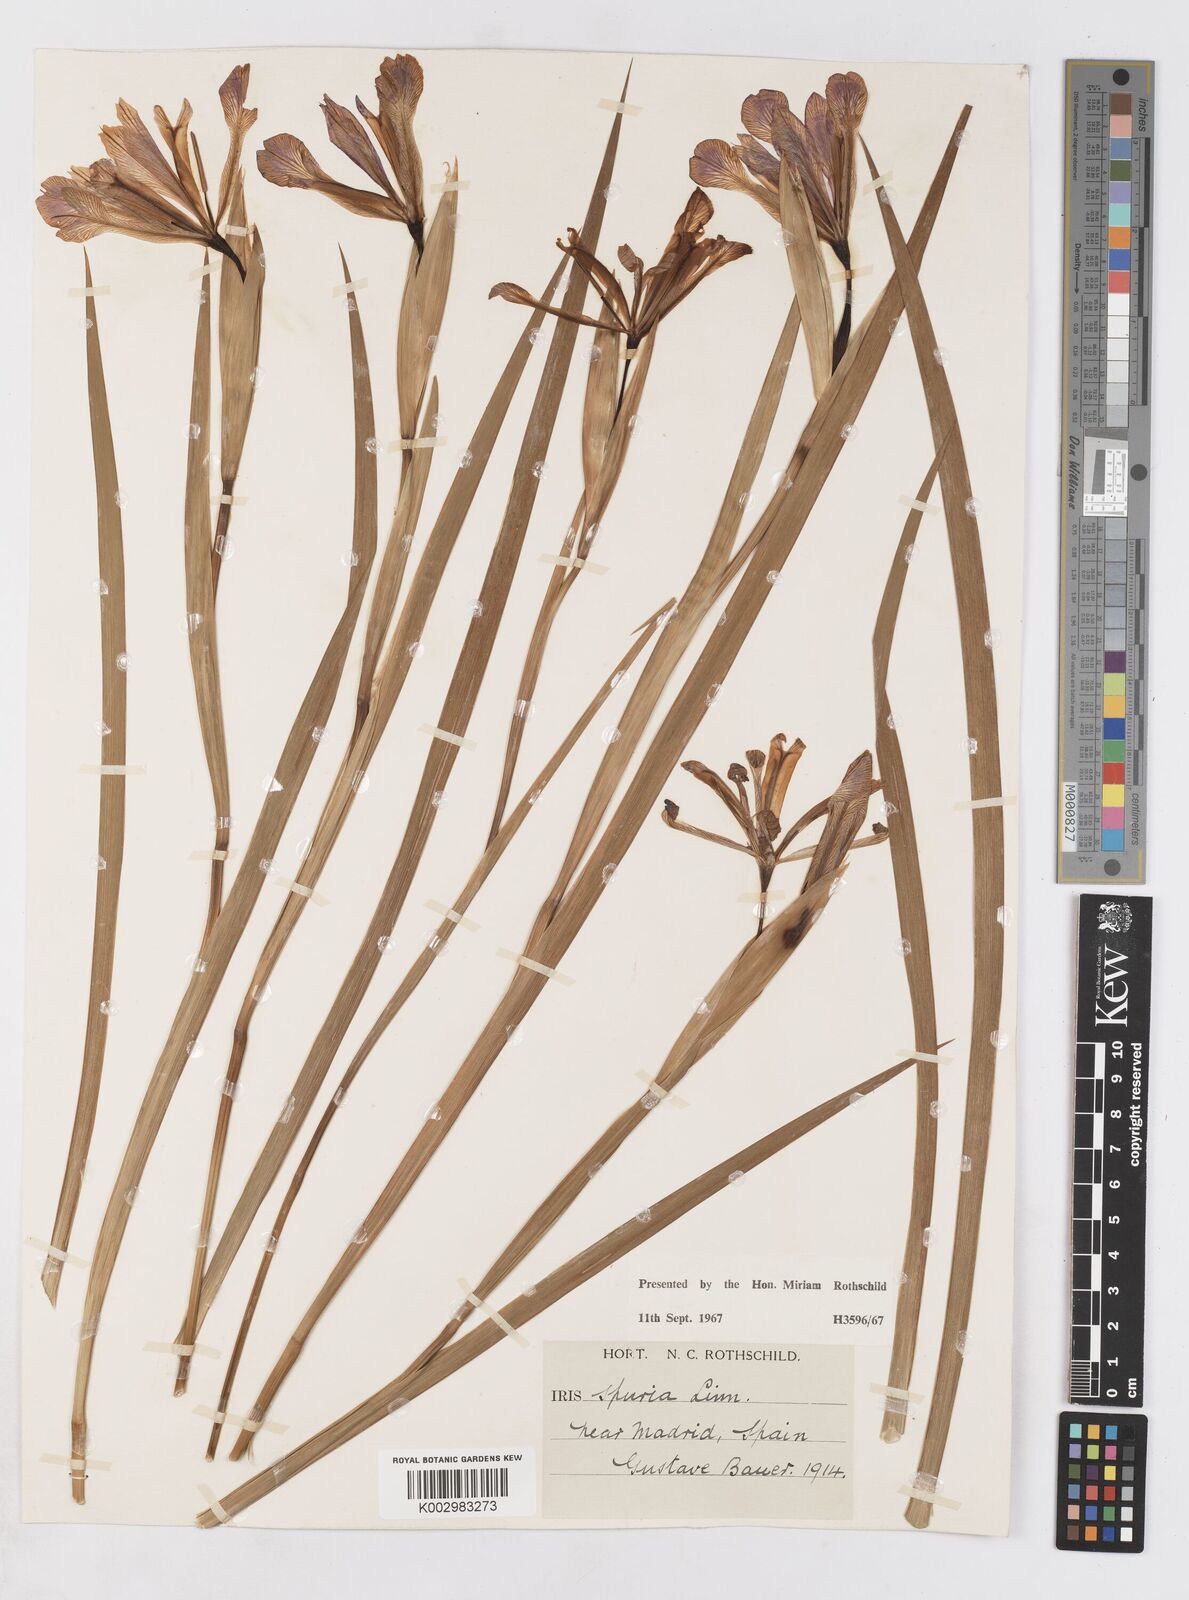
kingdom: Plantae
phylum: Tracheophyta
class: Liliopsida
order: Asparagales
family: Iridaceae
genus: Iris
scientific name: Iris spuria
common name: Blue iris
